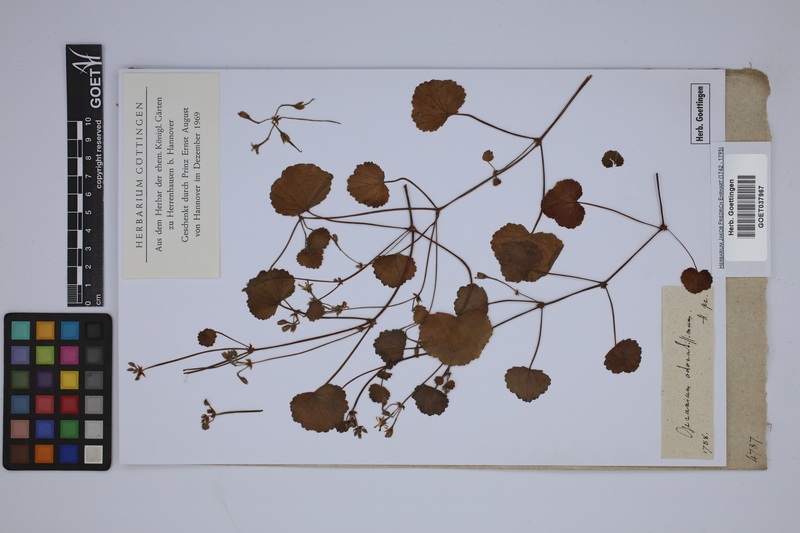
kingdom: Plantae
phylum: Tracheophyta
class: Magnoliopsida
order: Geraniales
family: Geraniaceae
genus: California
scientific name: California macrophylla
